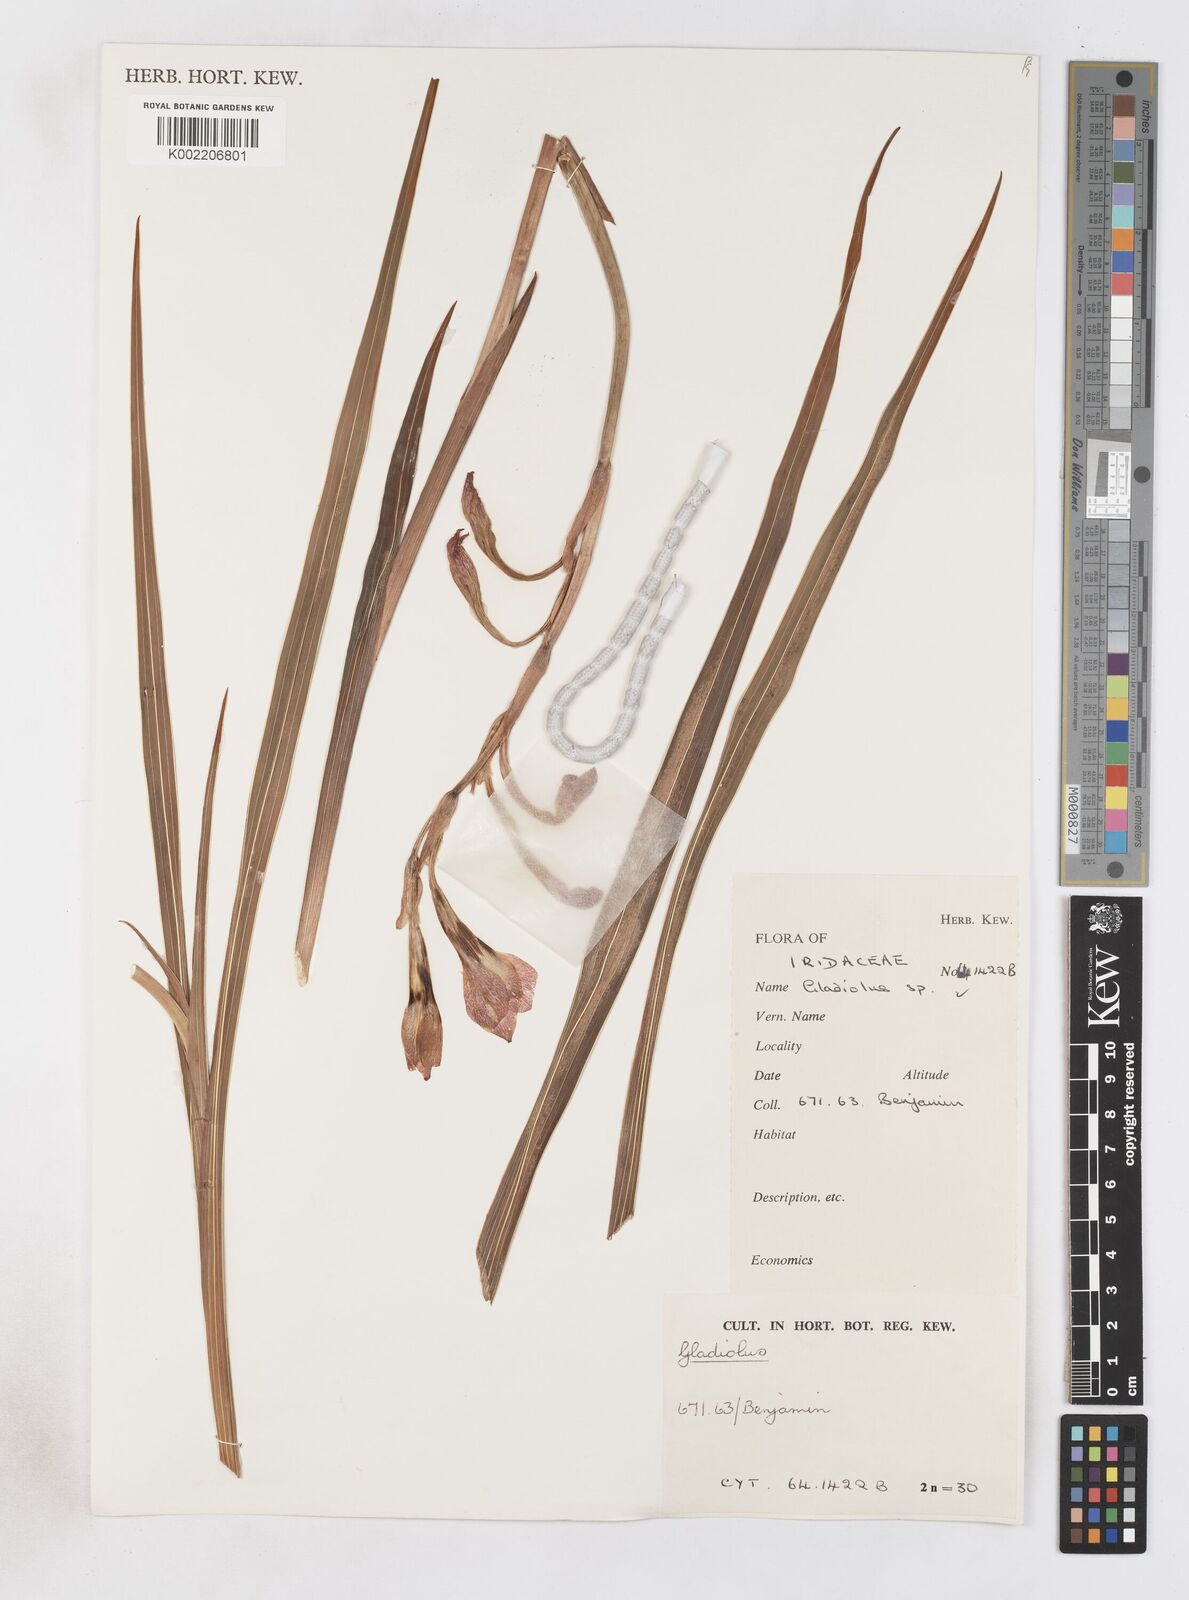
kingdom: Plantae
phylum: Tracheophyta
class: Liliopsida
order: Asparagales
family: Iridaceae
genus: Gladiolus
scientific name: Gladiolus
